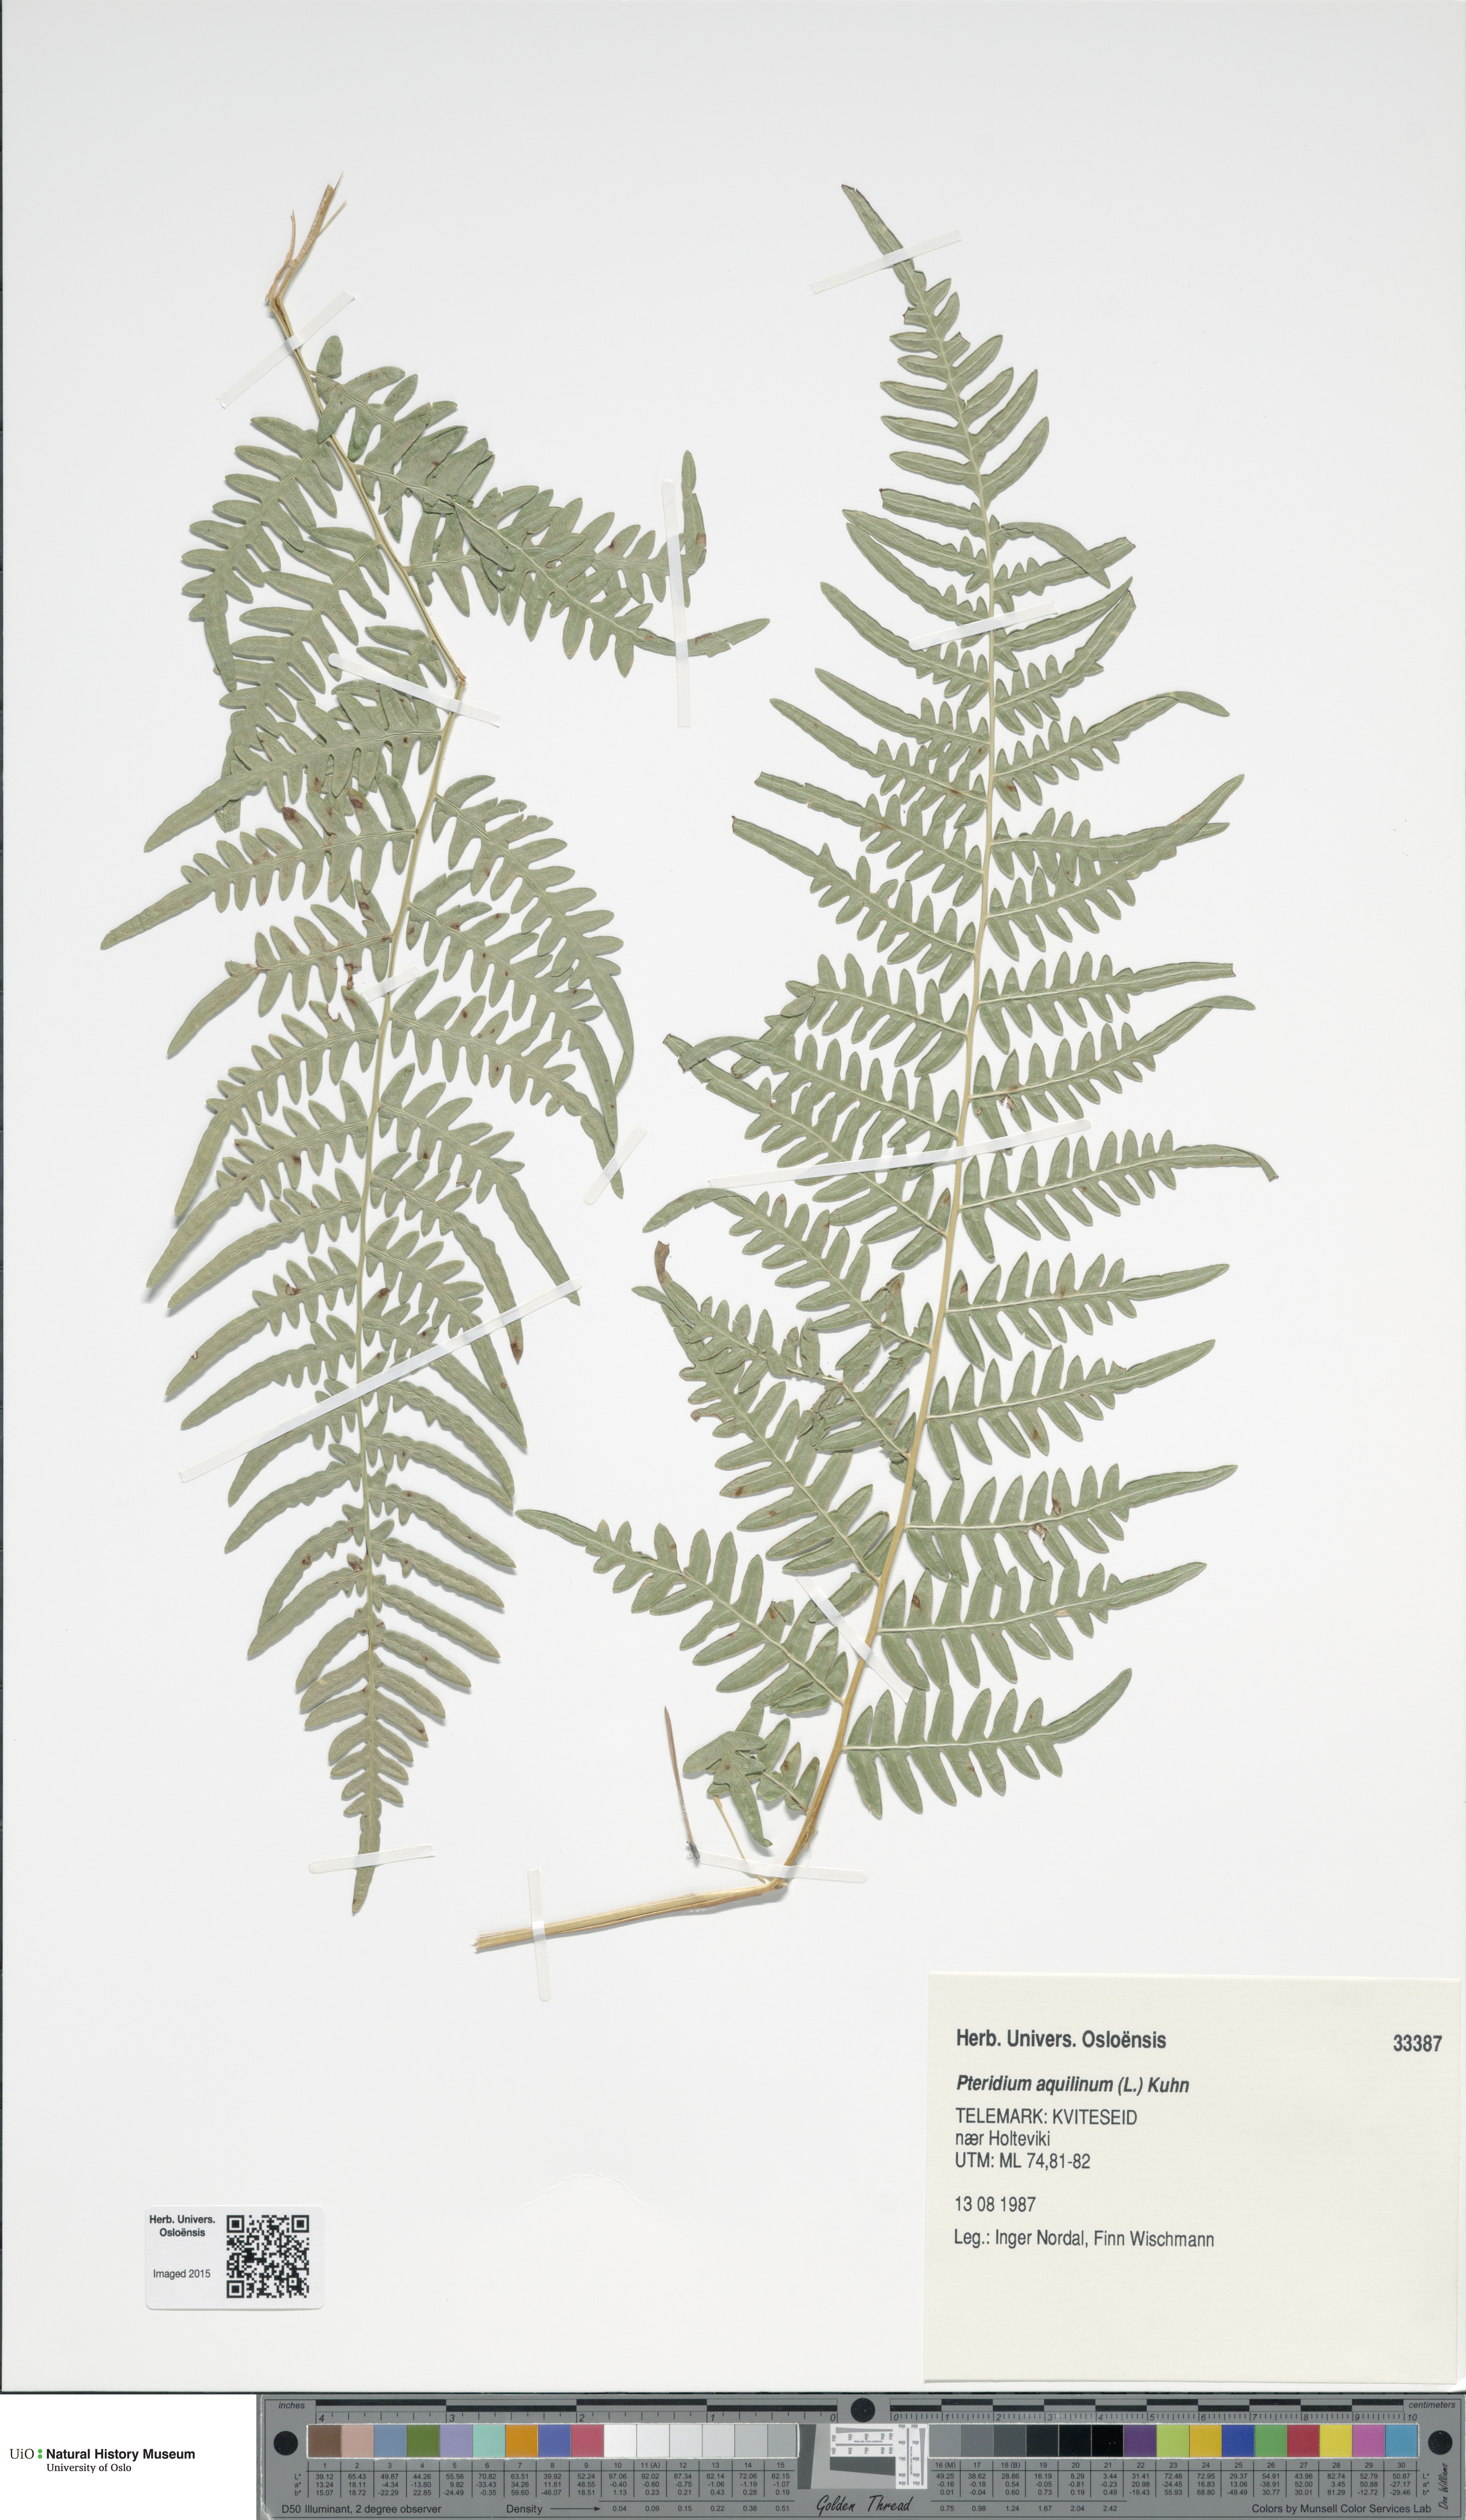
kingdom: Plantae
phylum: Tracheophyta
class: Polypodiopsida
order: Polypodiales
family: Dennstaedtiaceae
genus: Pteridium
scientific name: Pteridium aquilinum
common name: Bracken
